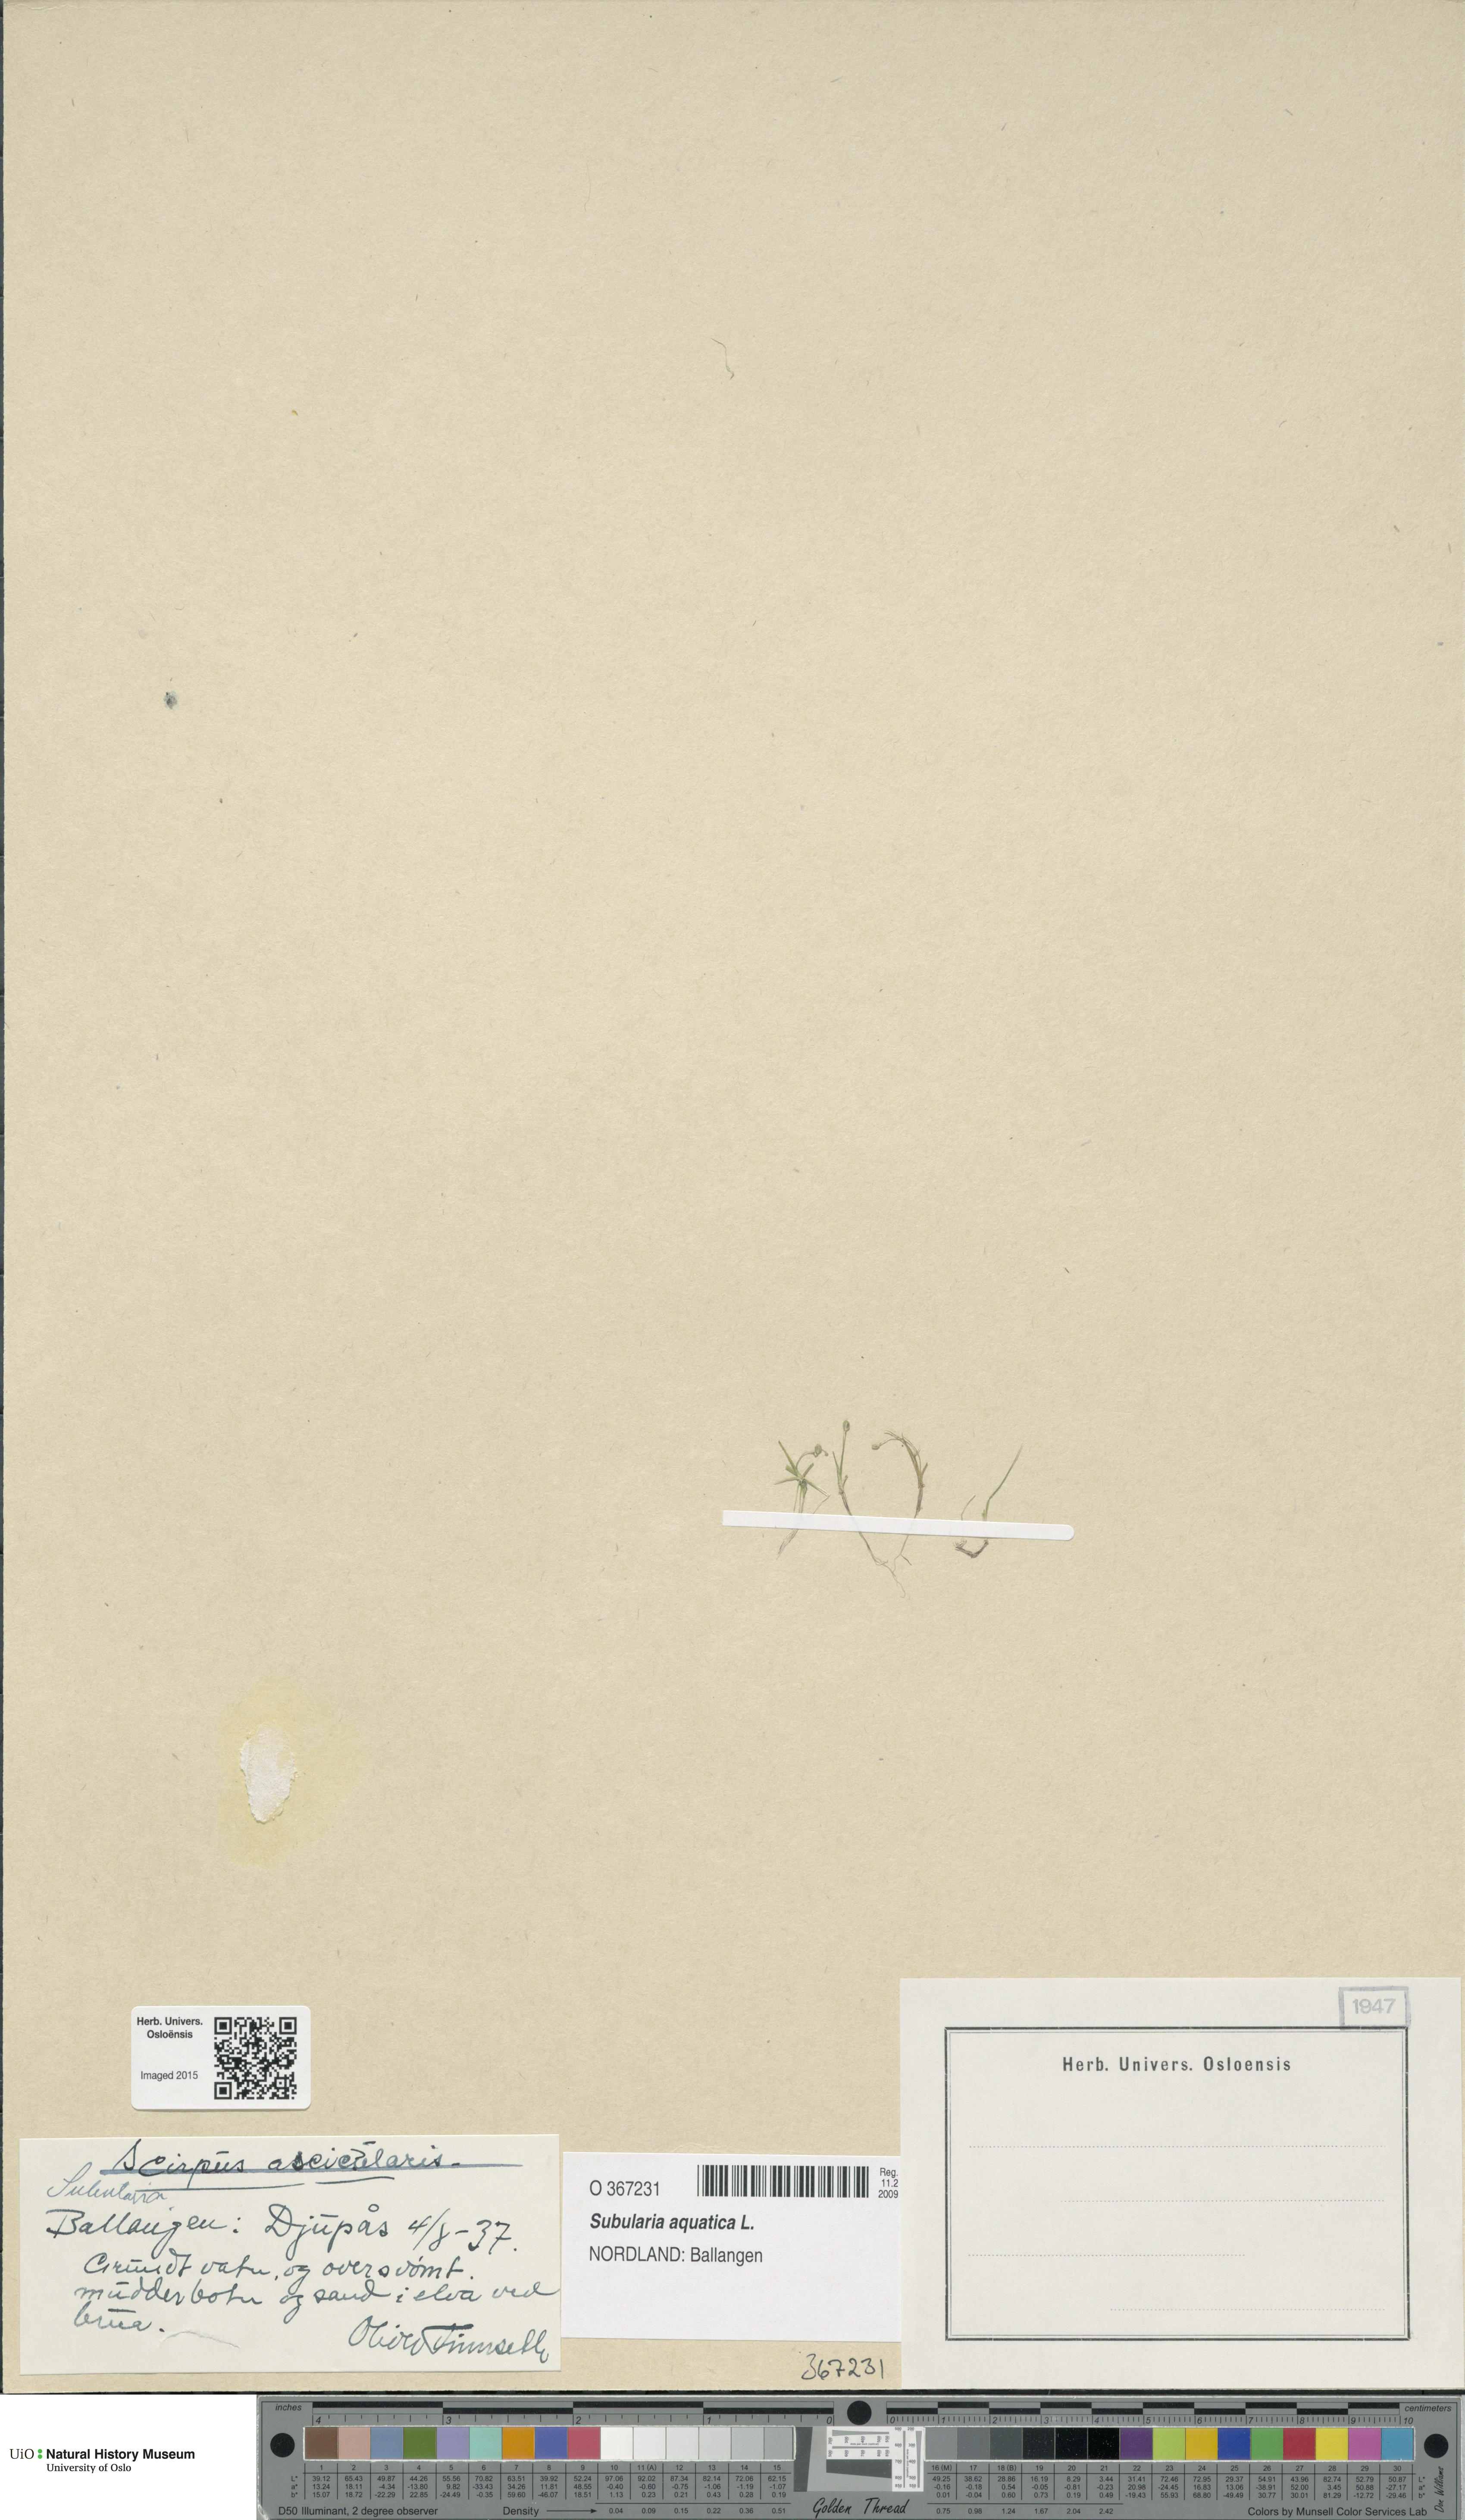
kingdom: Plantae
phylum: Tracheophyta
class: Magnoliopsida
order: Brassicales
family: Brassicaceae
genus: Subularia
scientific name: Subularia aquatica
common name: Awlwort
